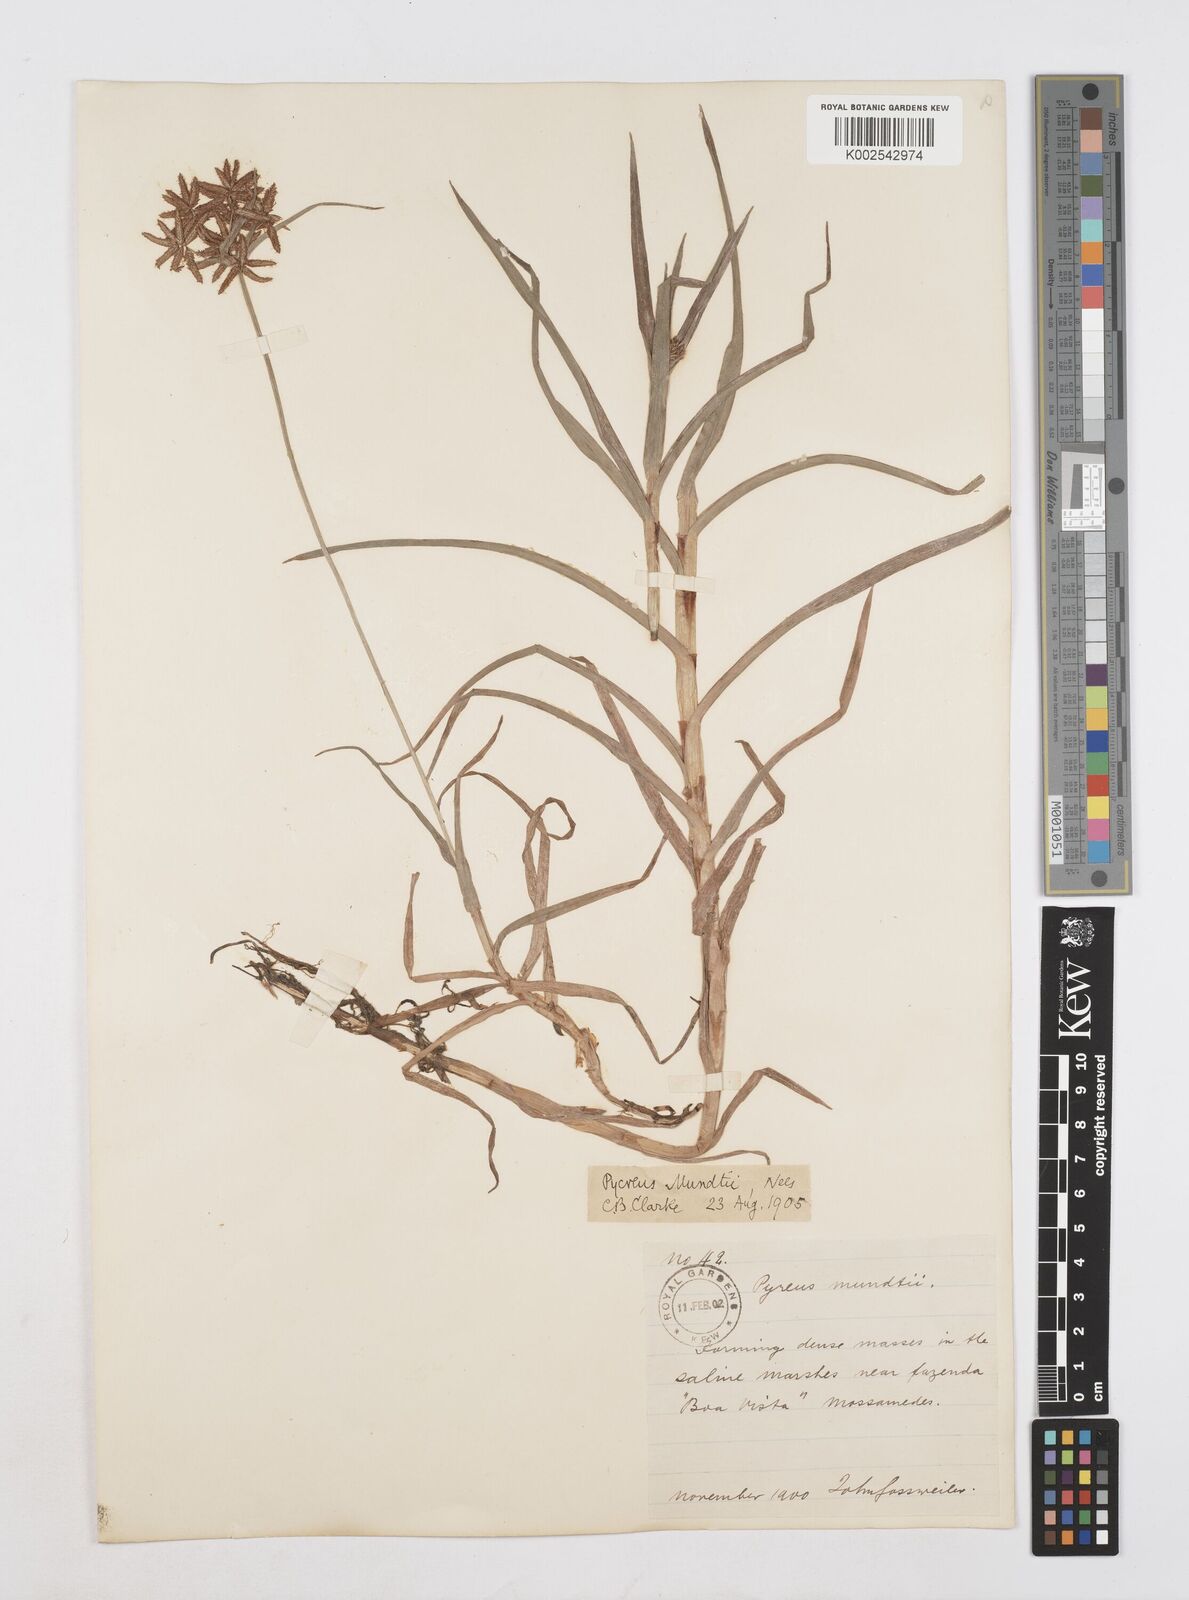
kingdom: Plantae
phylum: Tracheophyta
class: Liliopsida
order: Poales
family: Cyperaceae
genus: Cyperus
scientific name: Cyperus mundii
